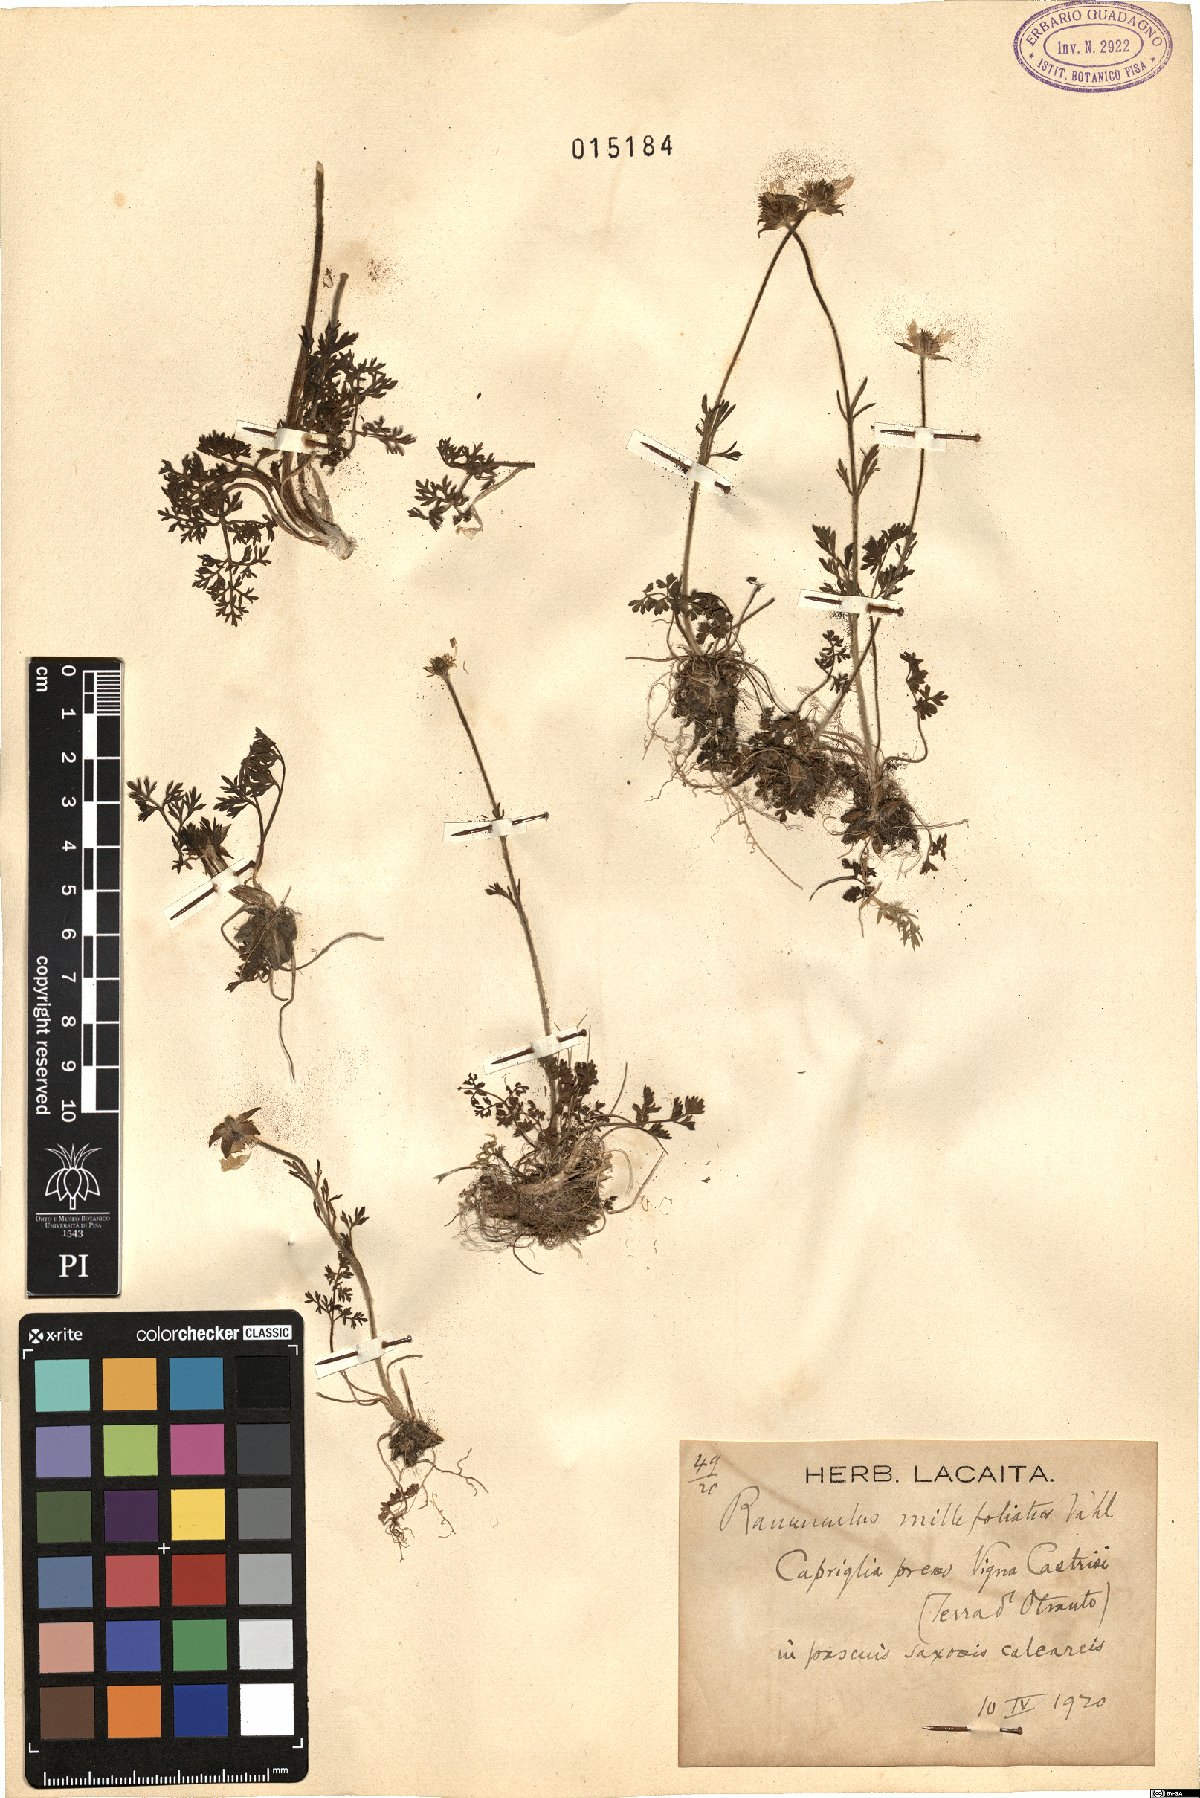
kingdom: Plantae
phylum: Tracheophyta
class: Magnoliopsida
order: Ranunculales
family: Ranunculaceae
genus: Ranunculus
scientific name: Ranunculus millefoliatus
